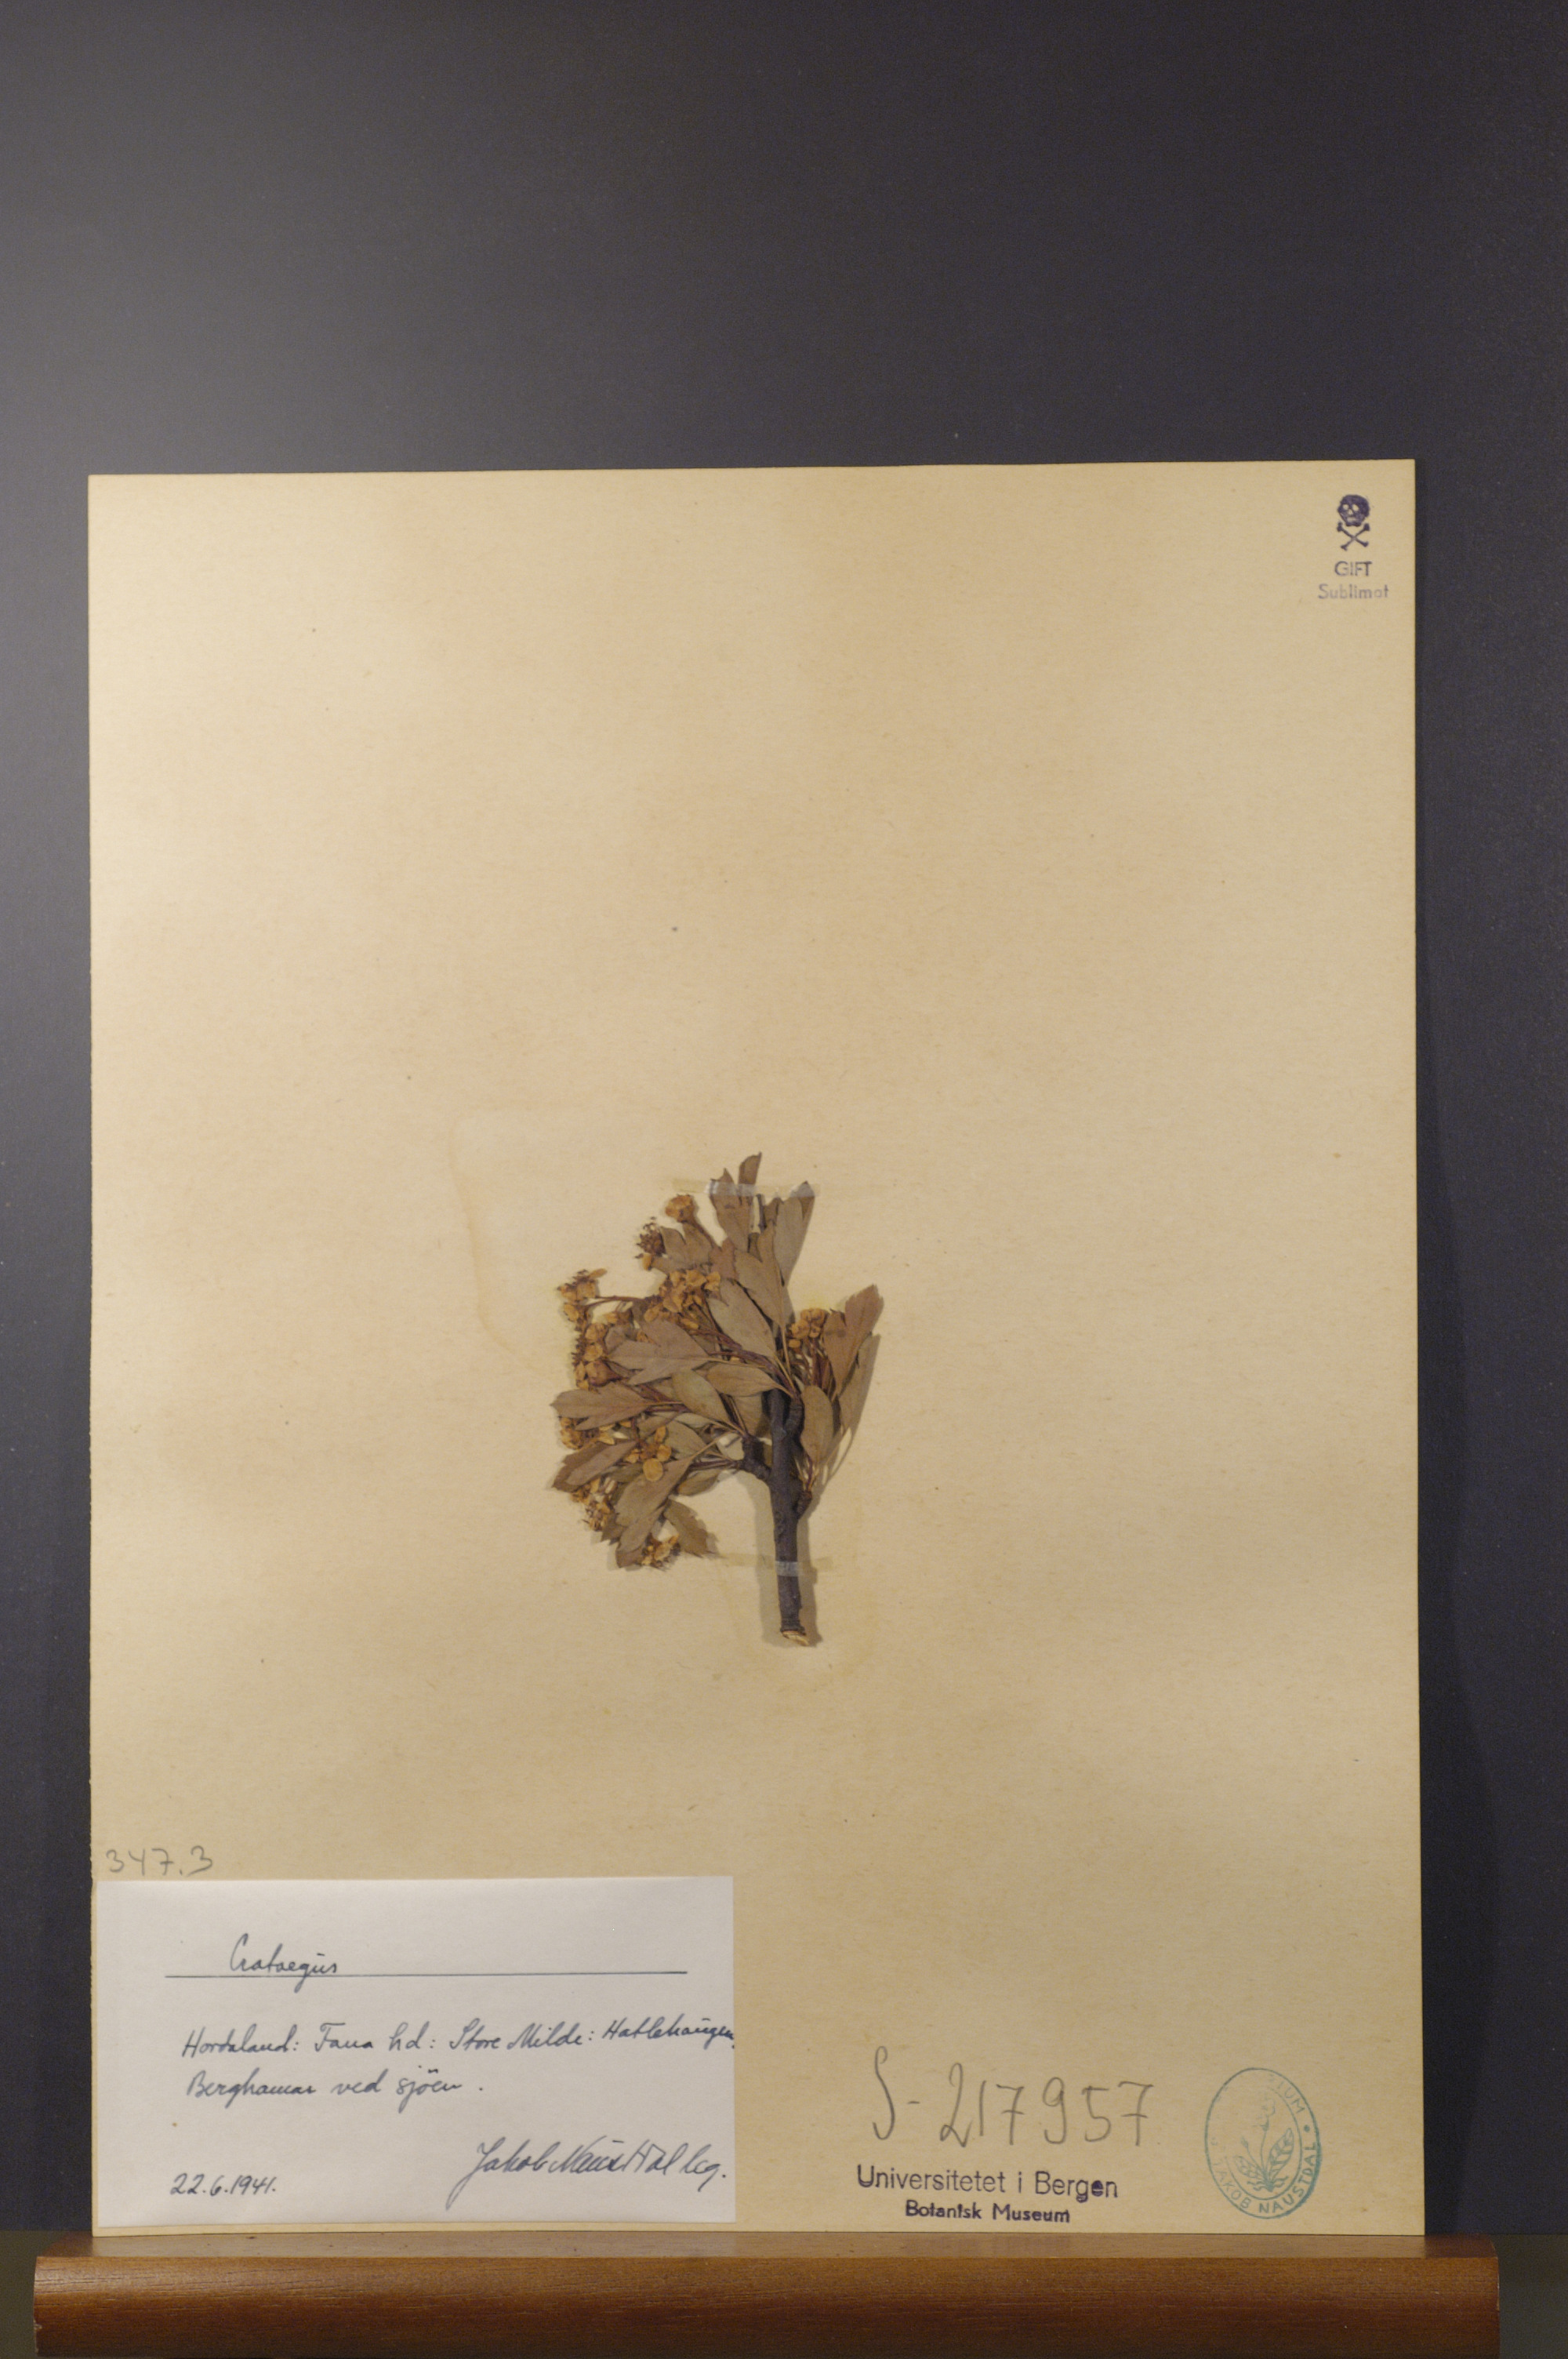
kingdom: Plantae
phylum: Tracheophyta
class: Magnoliopsida
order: Rosales
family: Rosaceae
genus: Crataegus
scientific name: Crataegus
